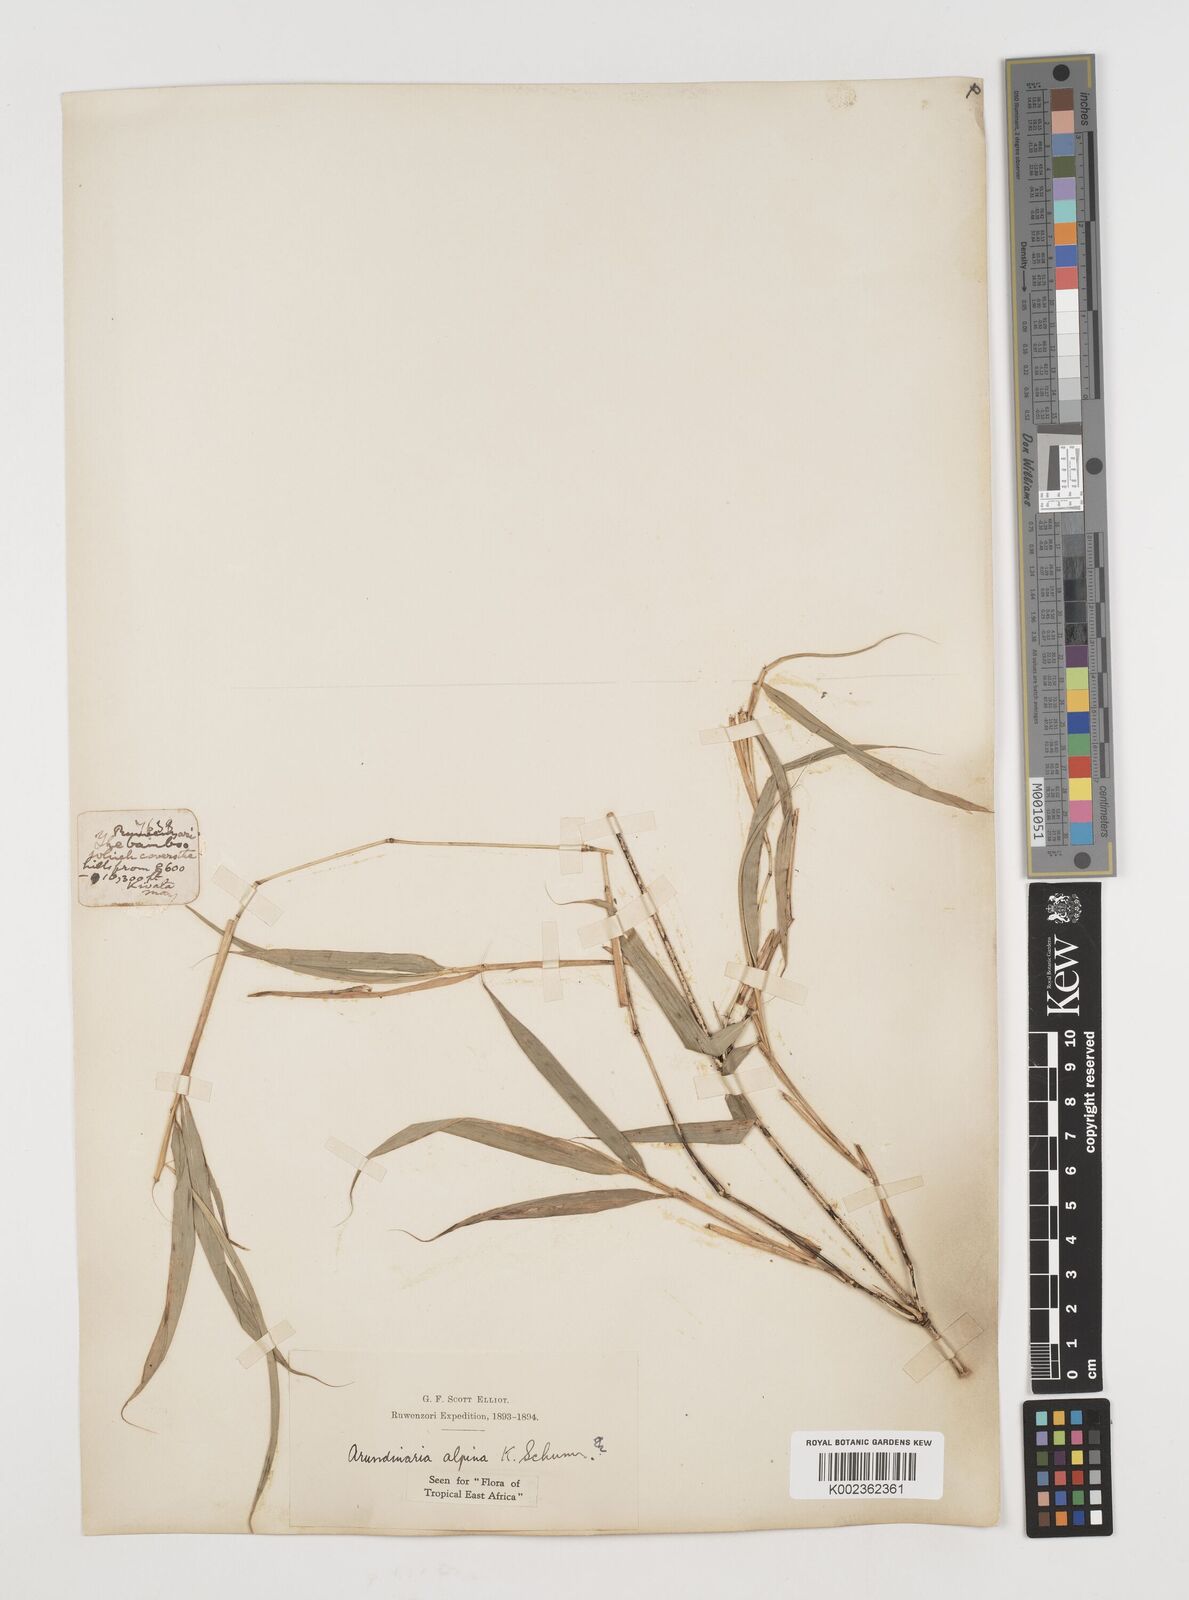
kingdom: Plantae
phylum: Tracheophyta
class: Liliopsida
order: Poales
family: Poaceae
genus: Oldeania
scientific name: Oldeania alpina
